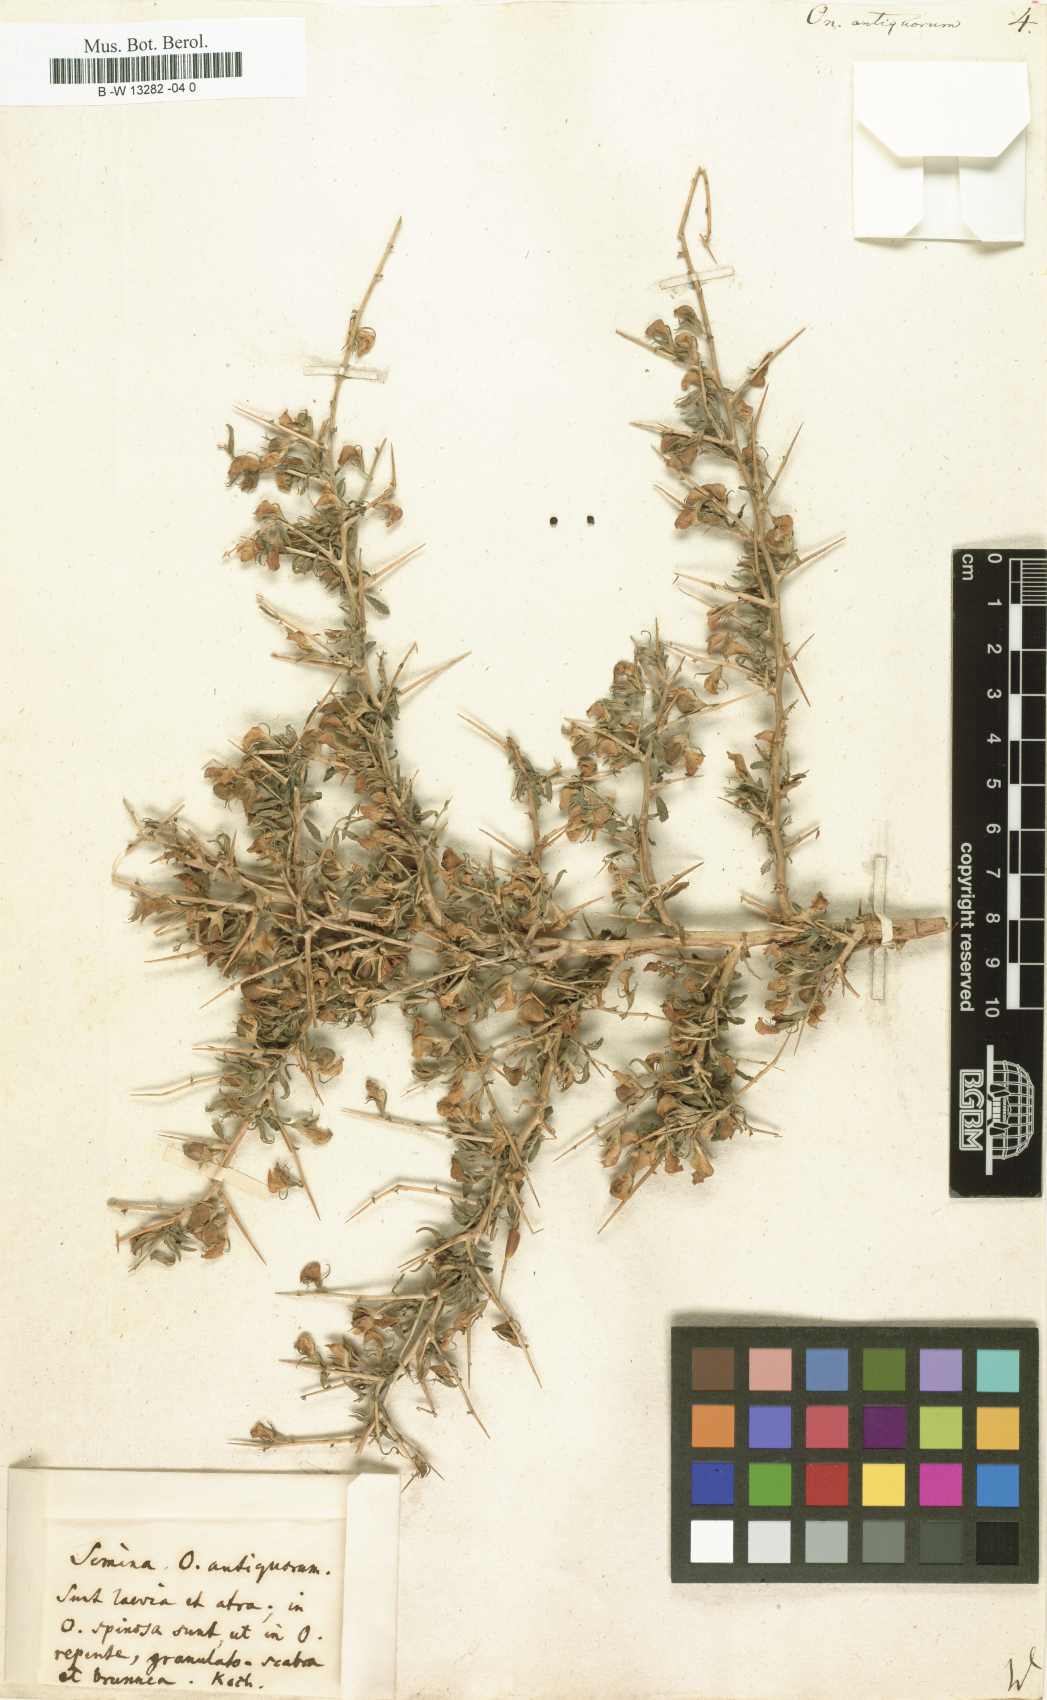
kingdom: Plantae
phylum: Tracheophyta
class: Magnoliopsida
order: Fabales
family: Fabaceae
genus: Ononis
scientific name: Ononis antiquorum
